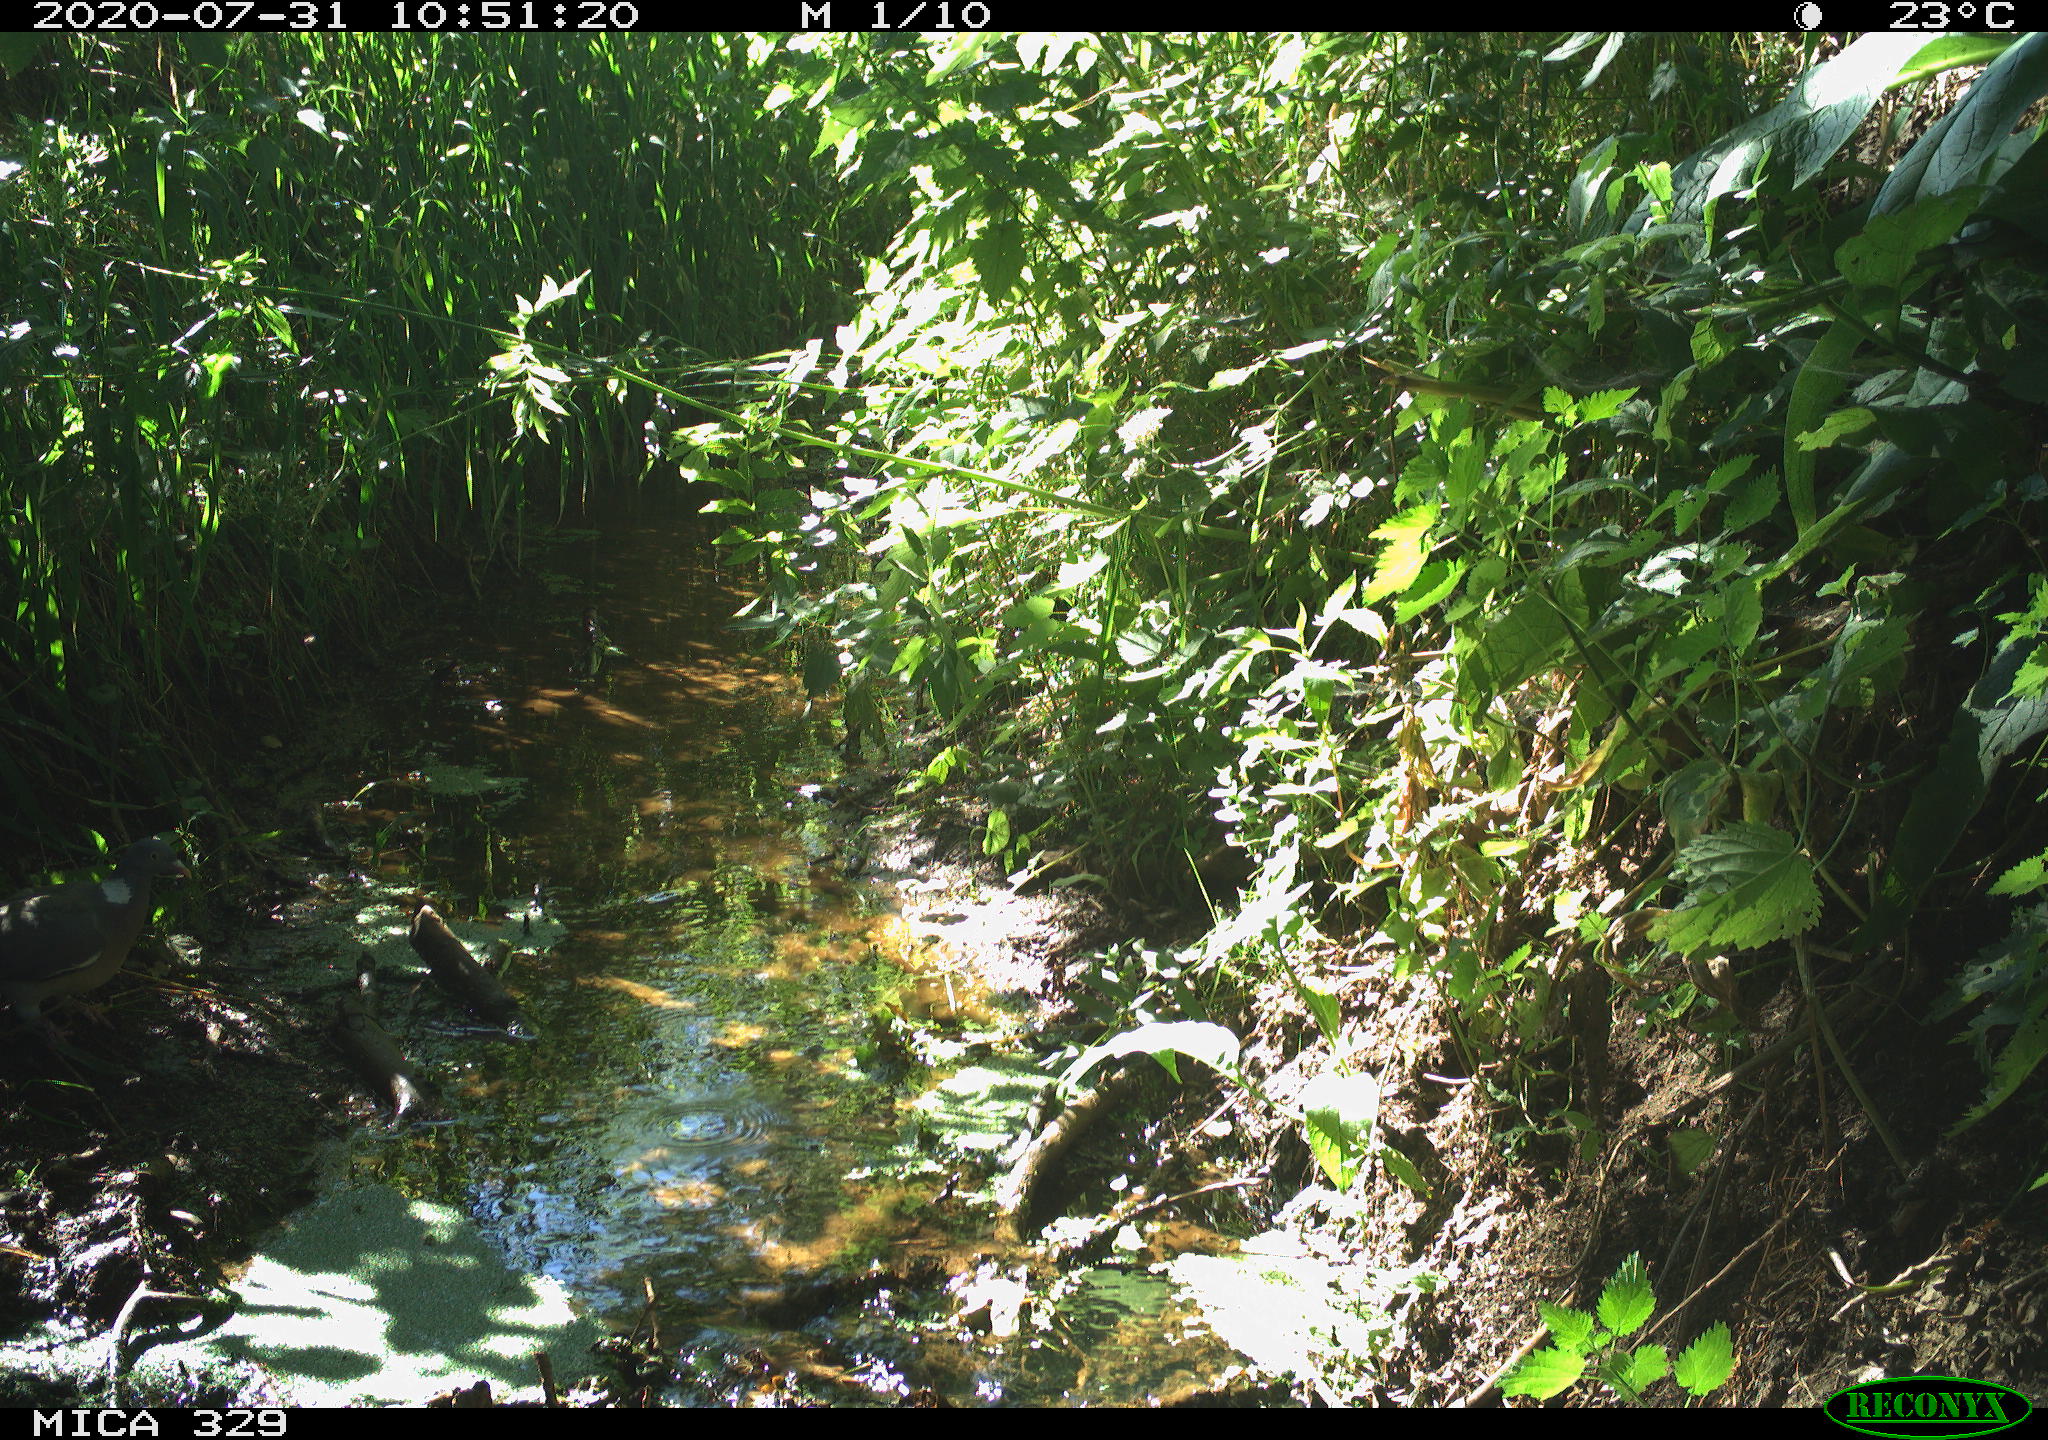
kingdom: Animalia
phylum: Chordata
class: Aves
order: Columbiformes
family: Columbidae
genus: Columba
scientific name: Columba palumbus
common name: Common wood pigeon
